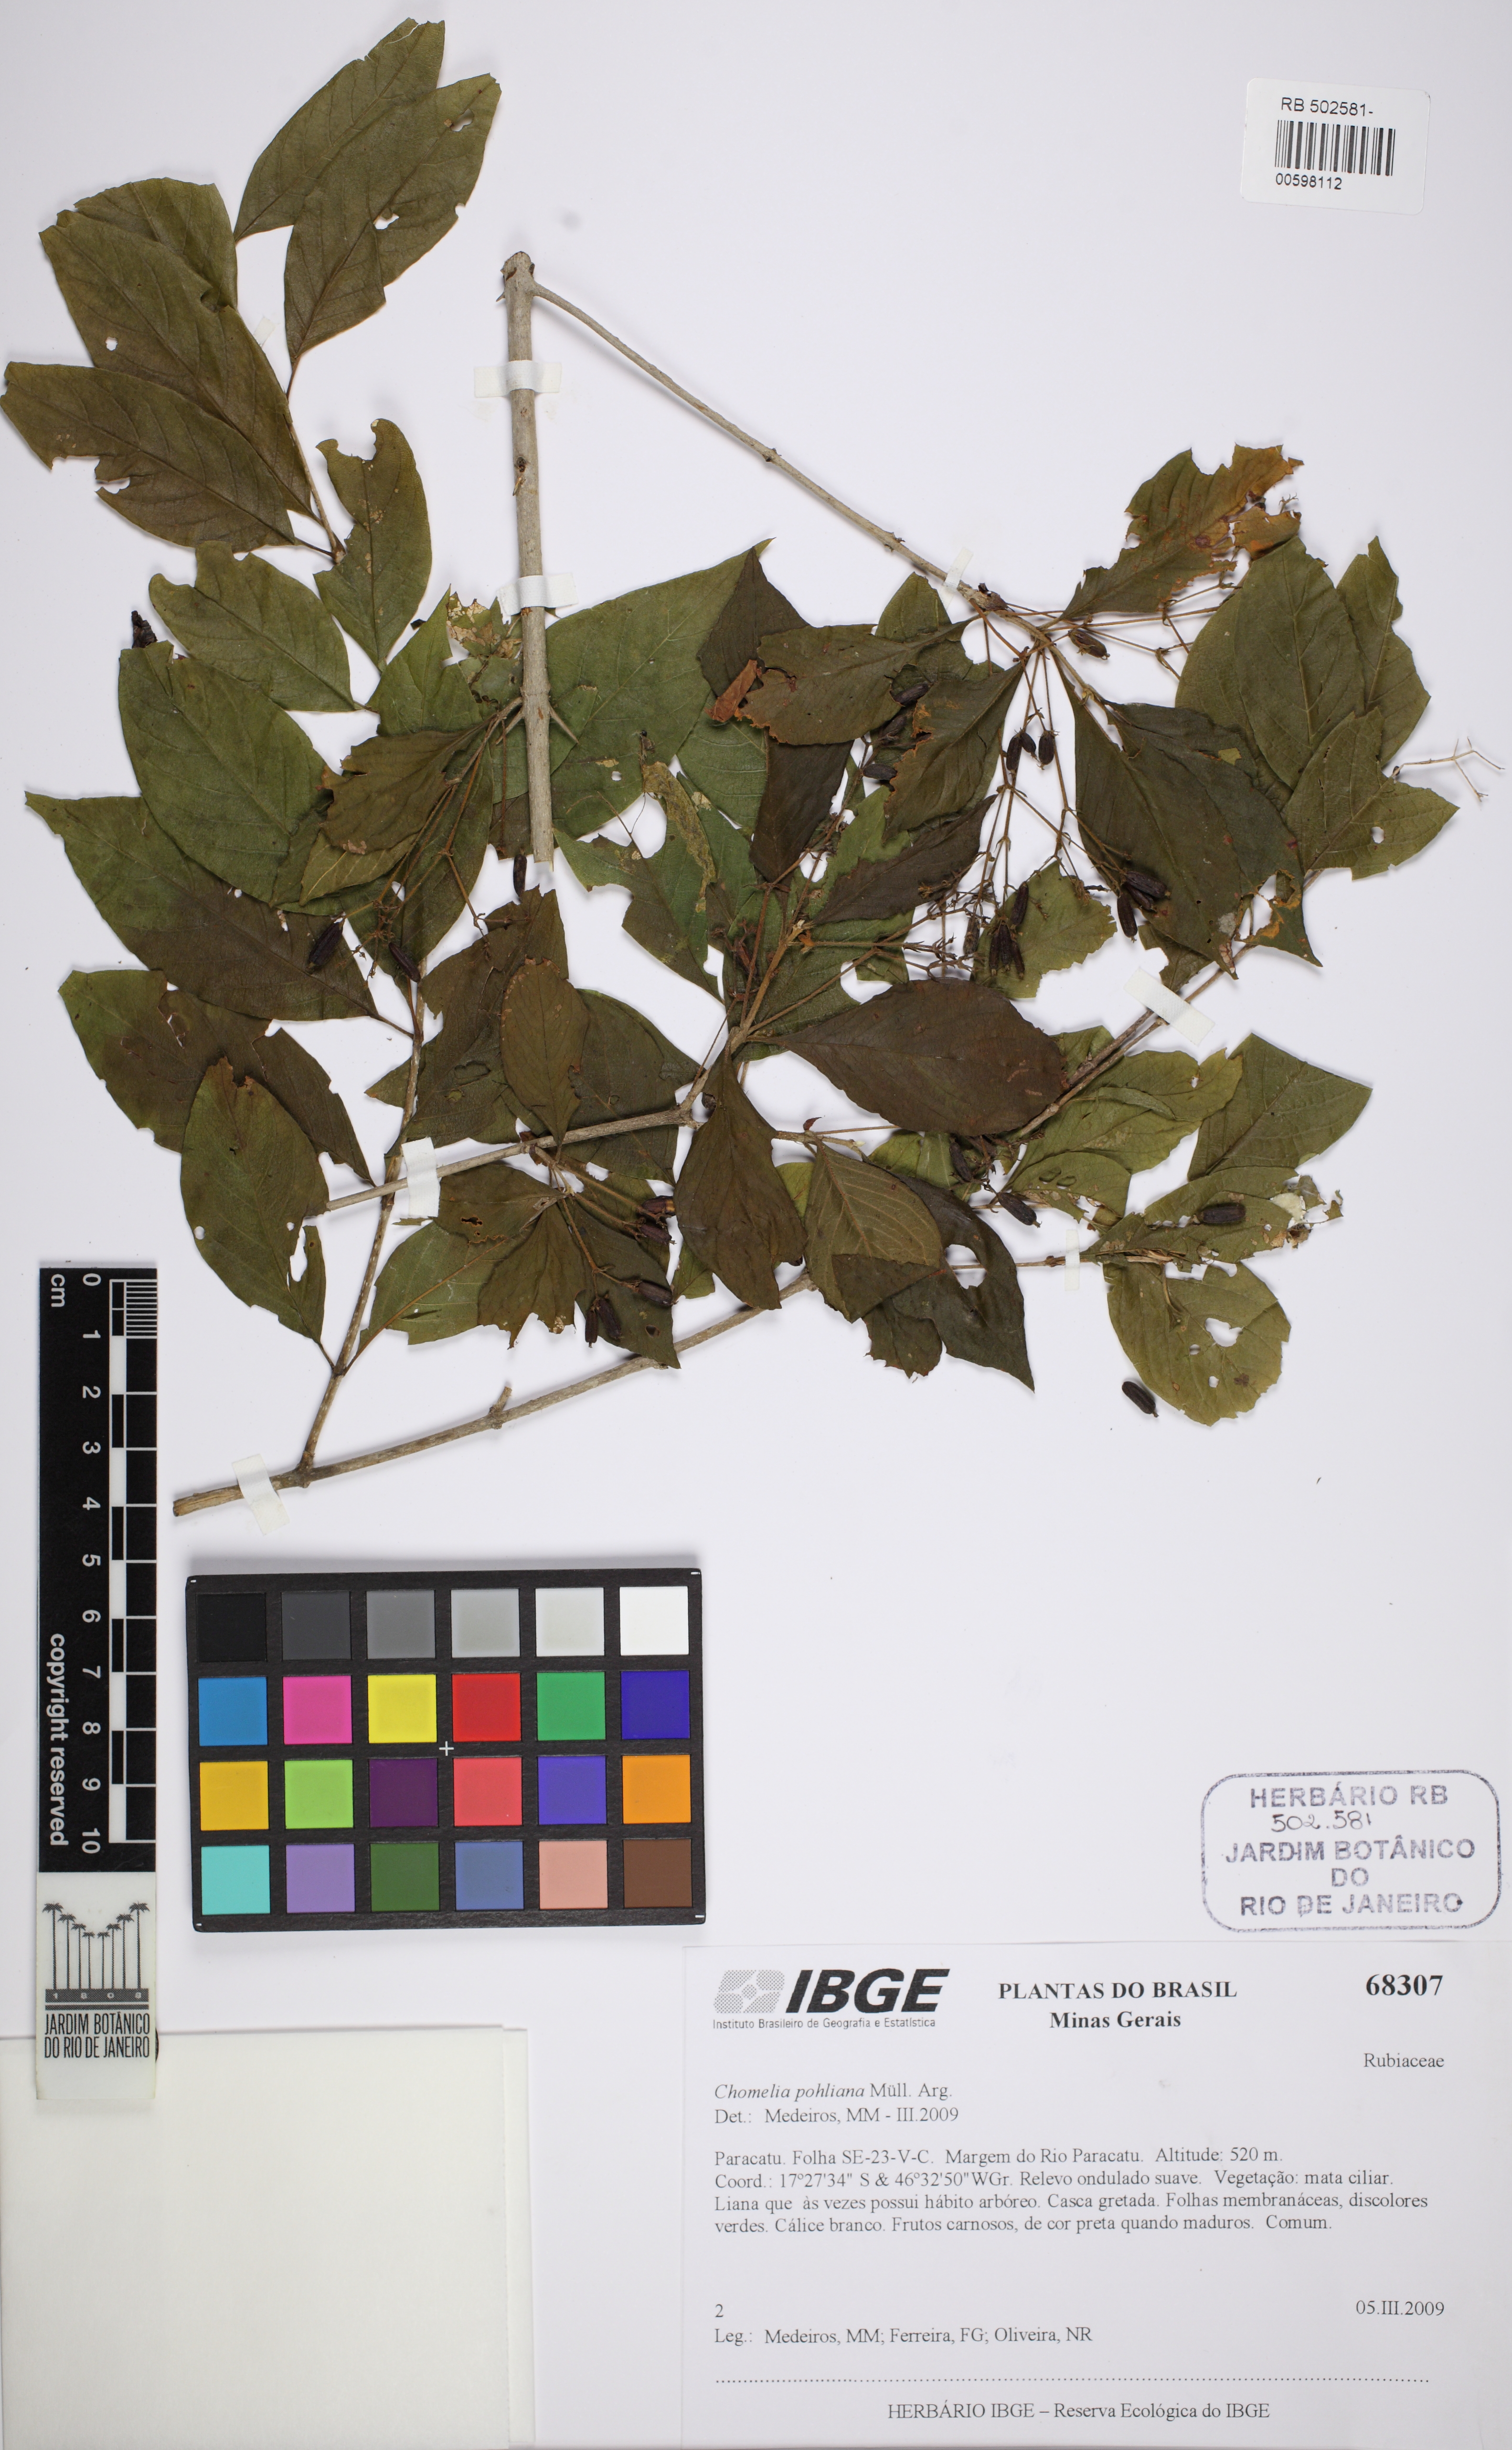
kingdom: Plantae
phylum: Tracheophyta
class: Magnoliopsida
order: Gentianales
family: Rubiaceae
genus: Chomelia
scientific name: Chomelia pohliana
